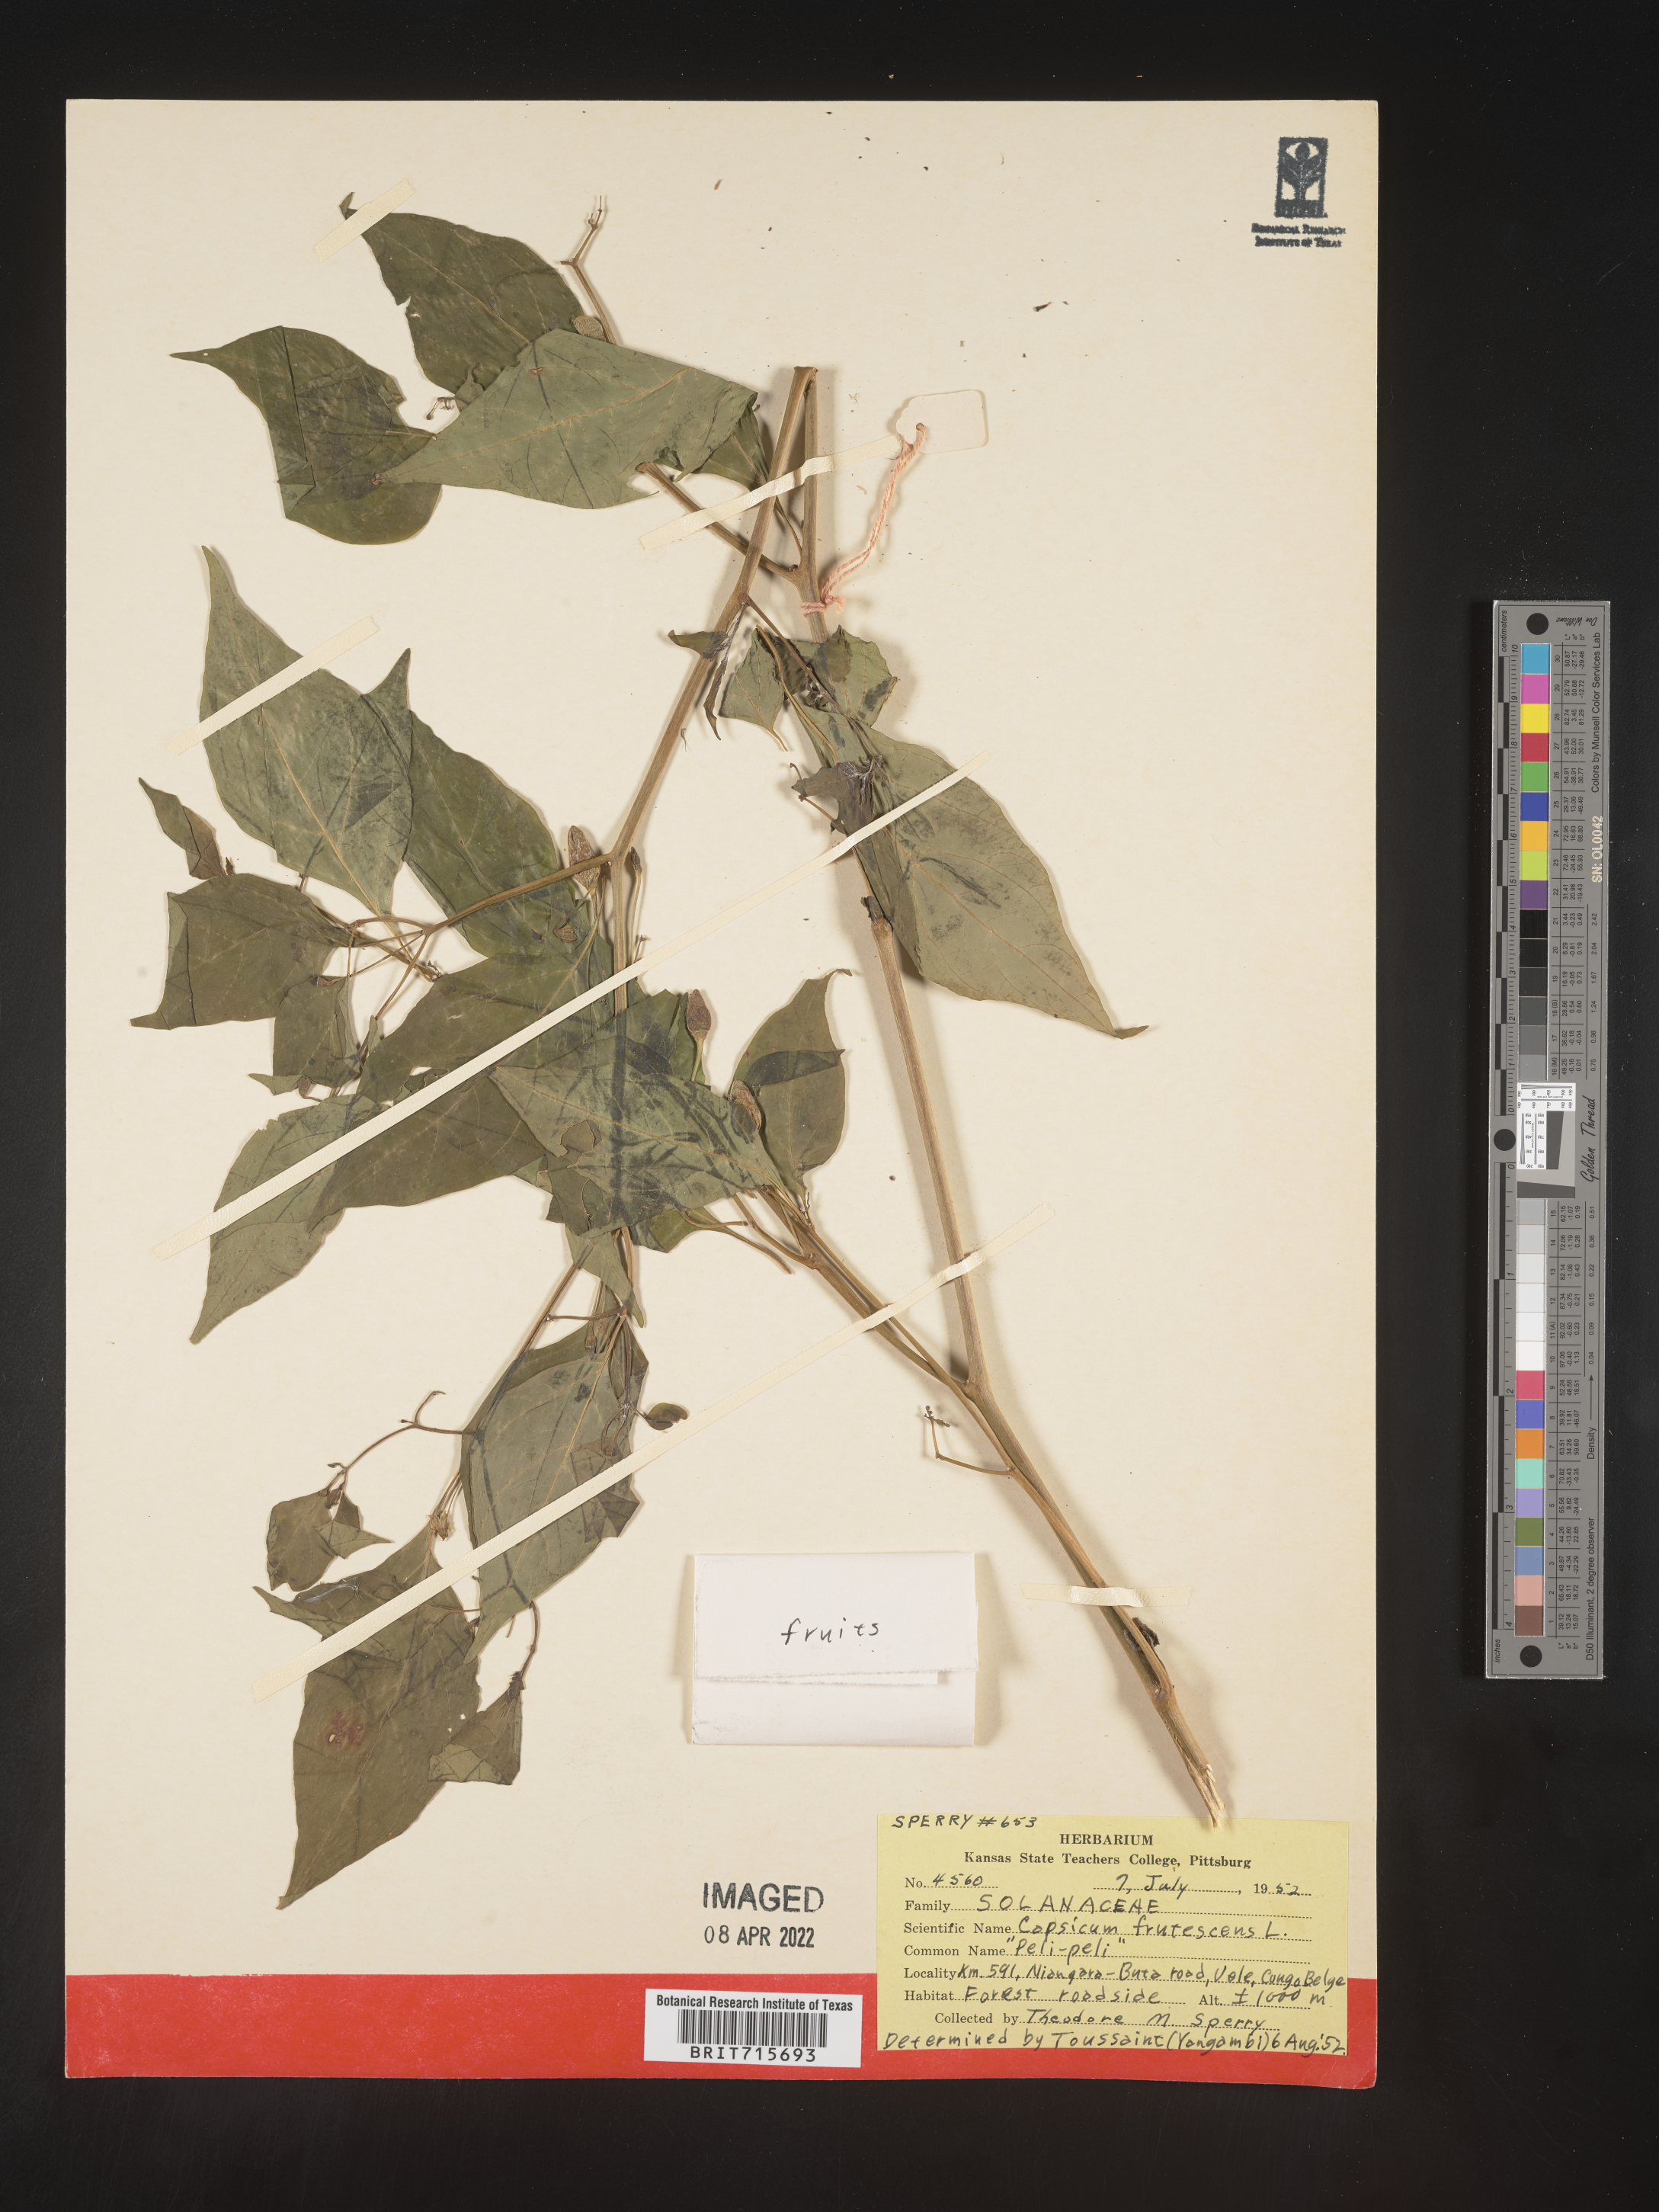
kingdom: Plantae
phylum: Tracheophyta
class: Magnoliopsida
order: Solanales
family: Solanaceae
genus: Capsicum
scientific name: Capsicum
